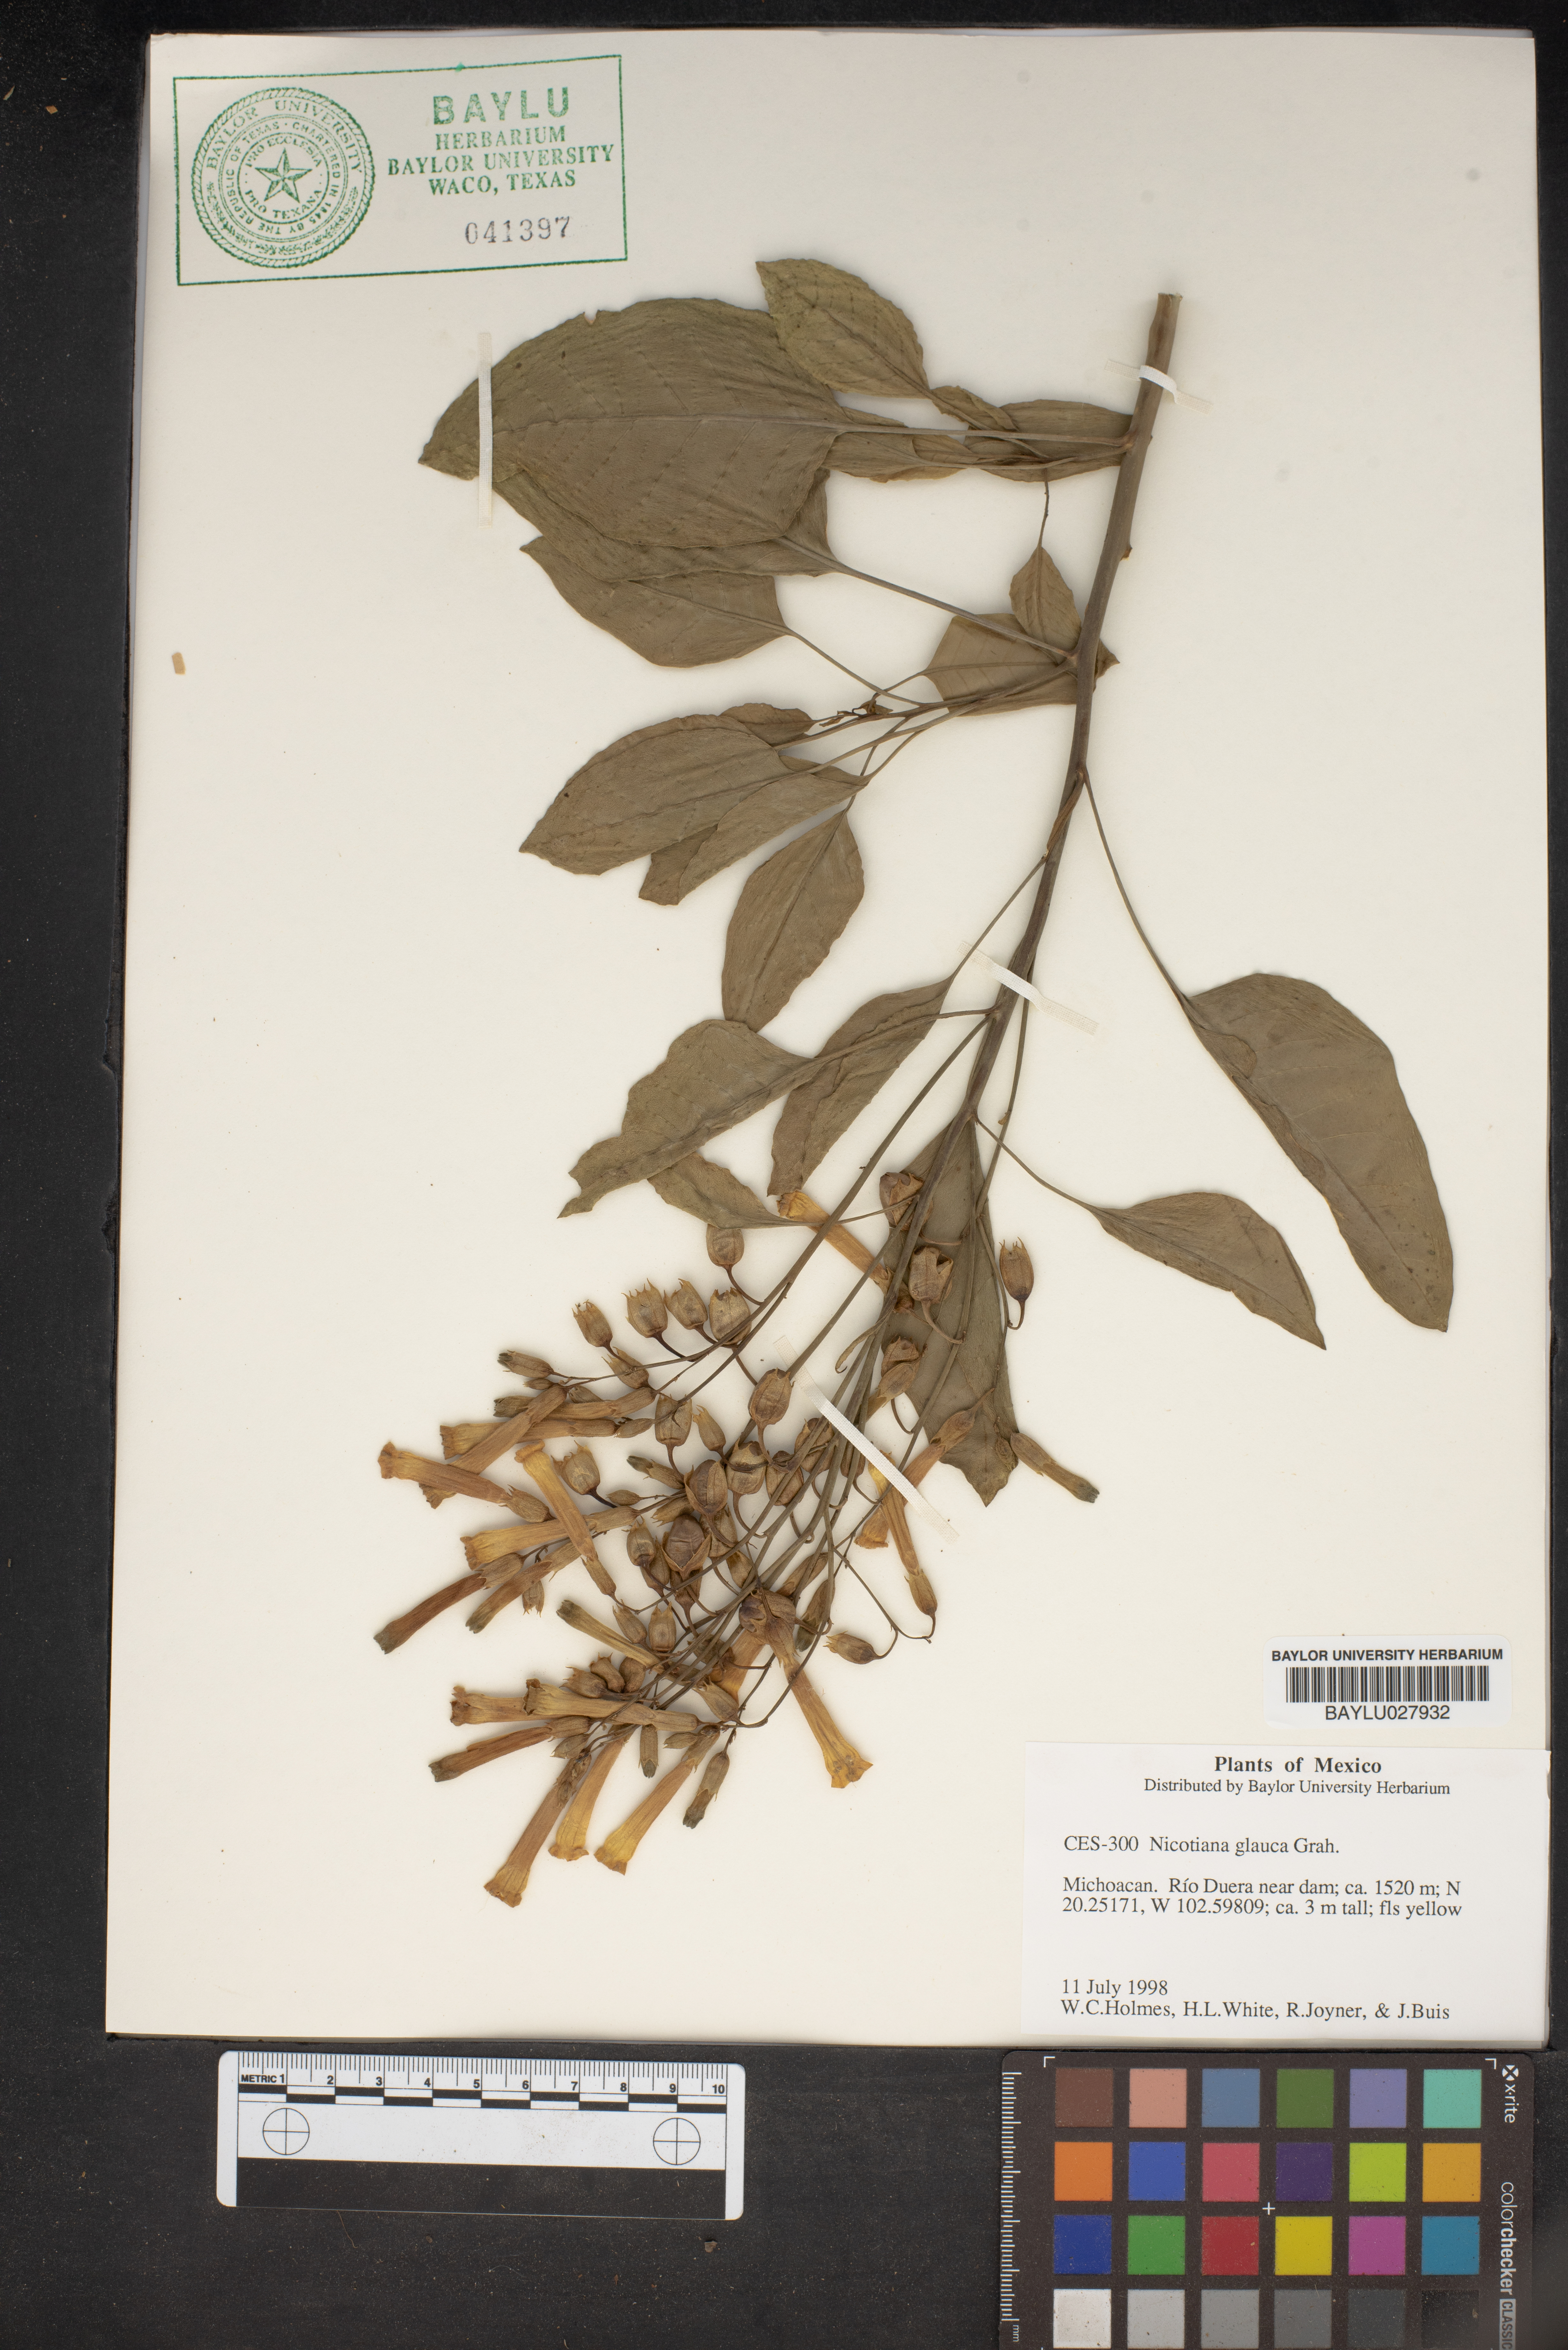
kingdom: Plantae
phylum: Tracheophyta
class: Magnoliopsida
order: Solanales
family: Solanaceae
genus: Nicotiana
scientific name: Nicotiana glauca
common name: Tree tobacco
